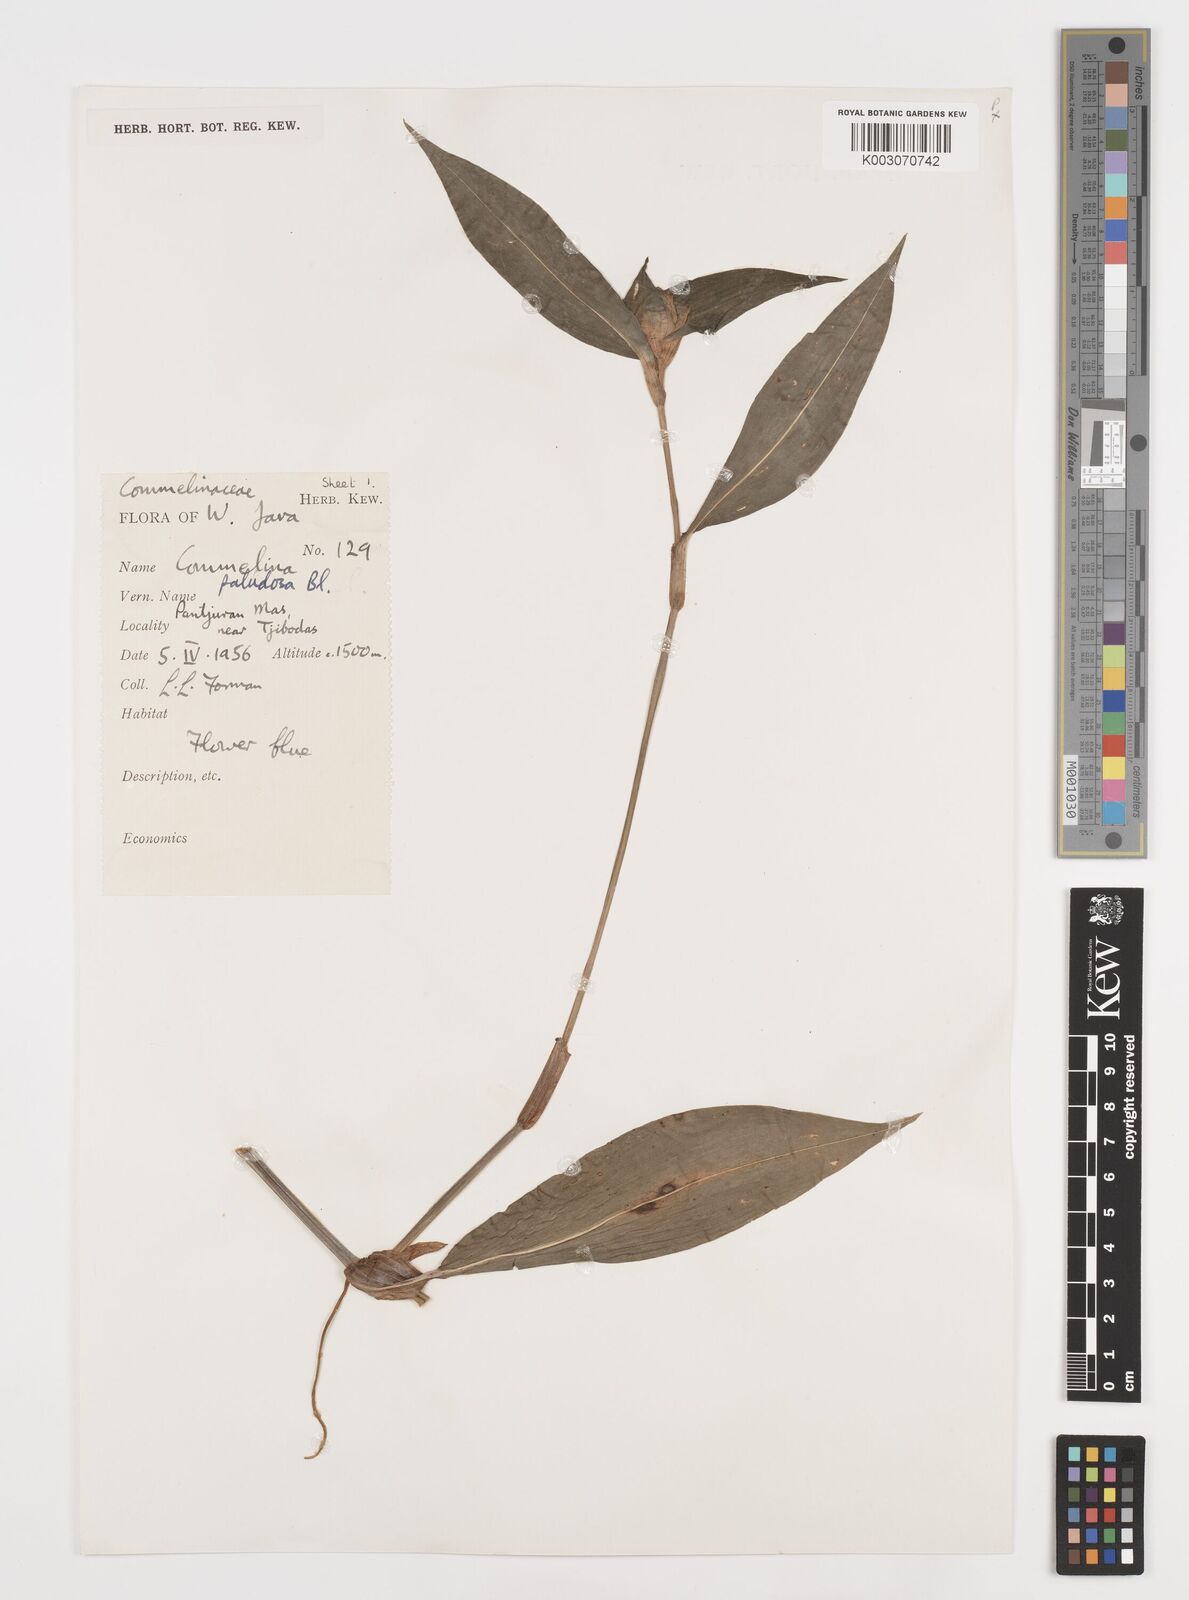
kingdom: Plantae
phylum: Tracheophyta
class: Liliopsida
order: Commelinales
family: Commelinaceae
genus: Commelina
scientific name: Commelina paludosa
